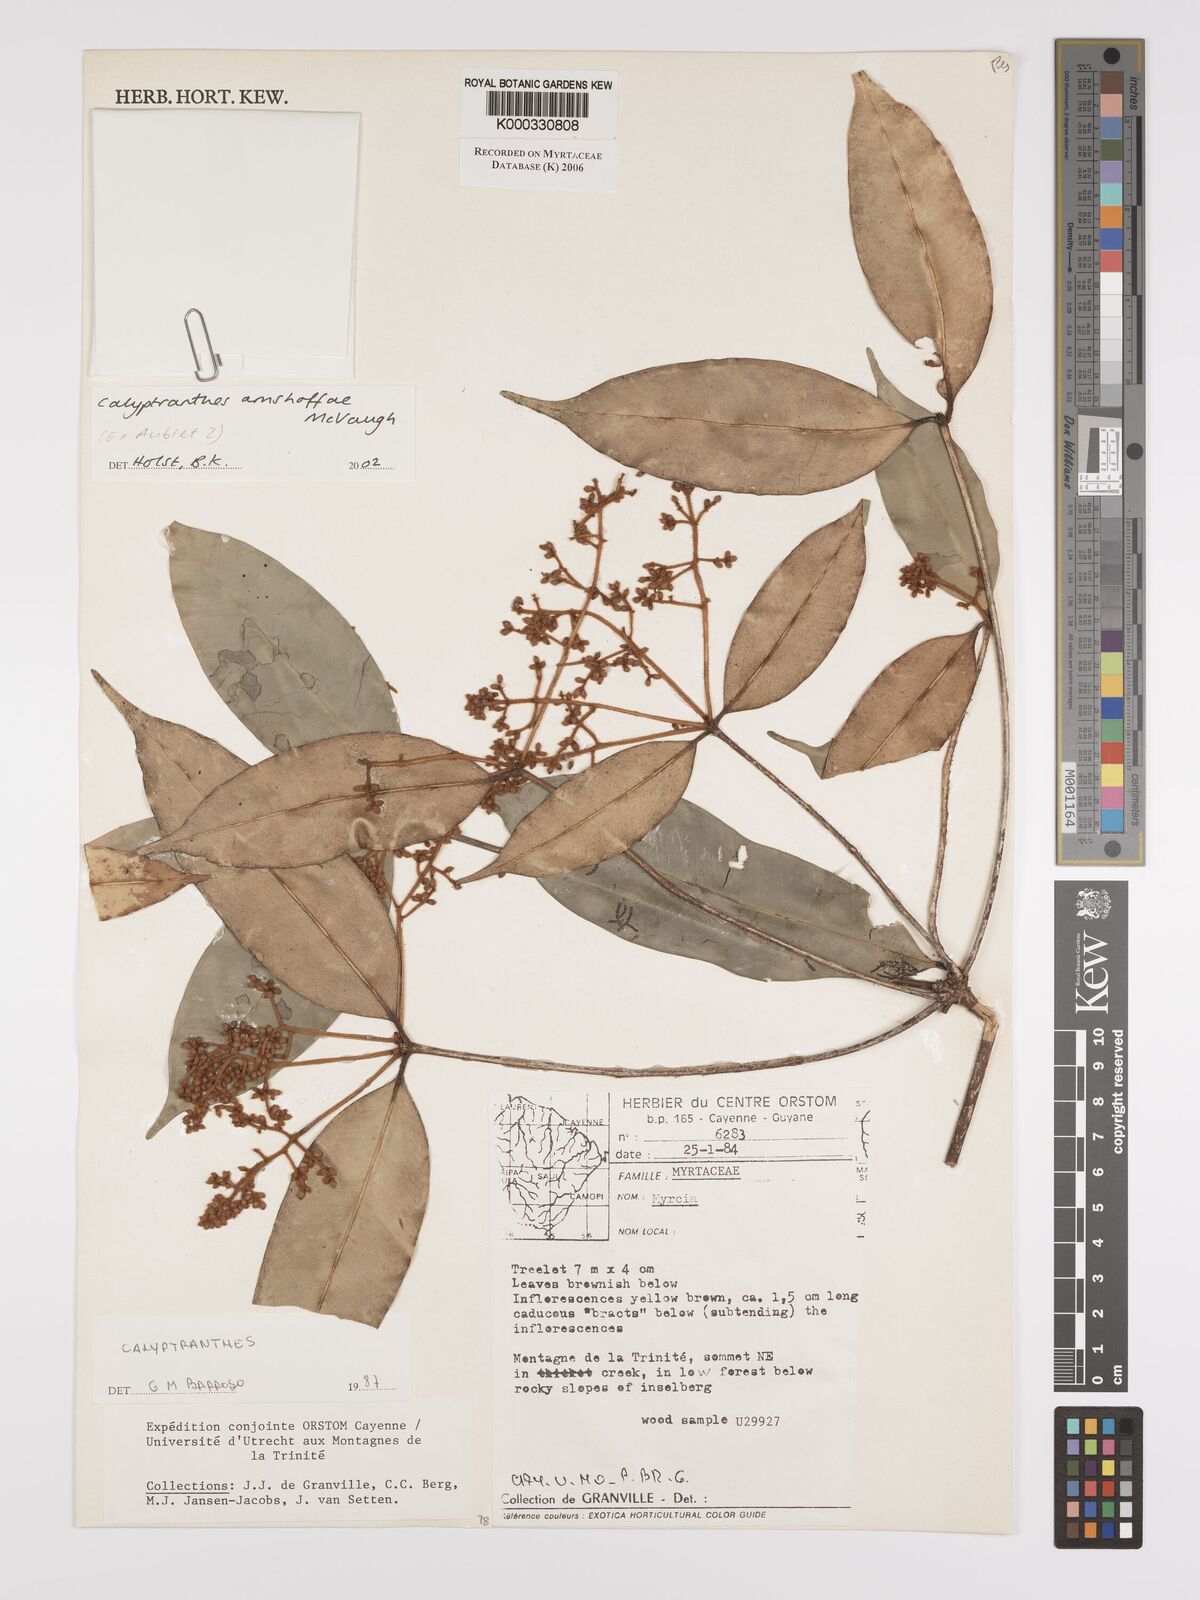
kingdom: Plantae
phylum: Tracheophyta
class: Magnoliopsida
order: Myrtales
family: Myrtaceae
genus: Myrcia
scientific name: Myrcia amshoffae
